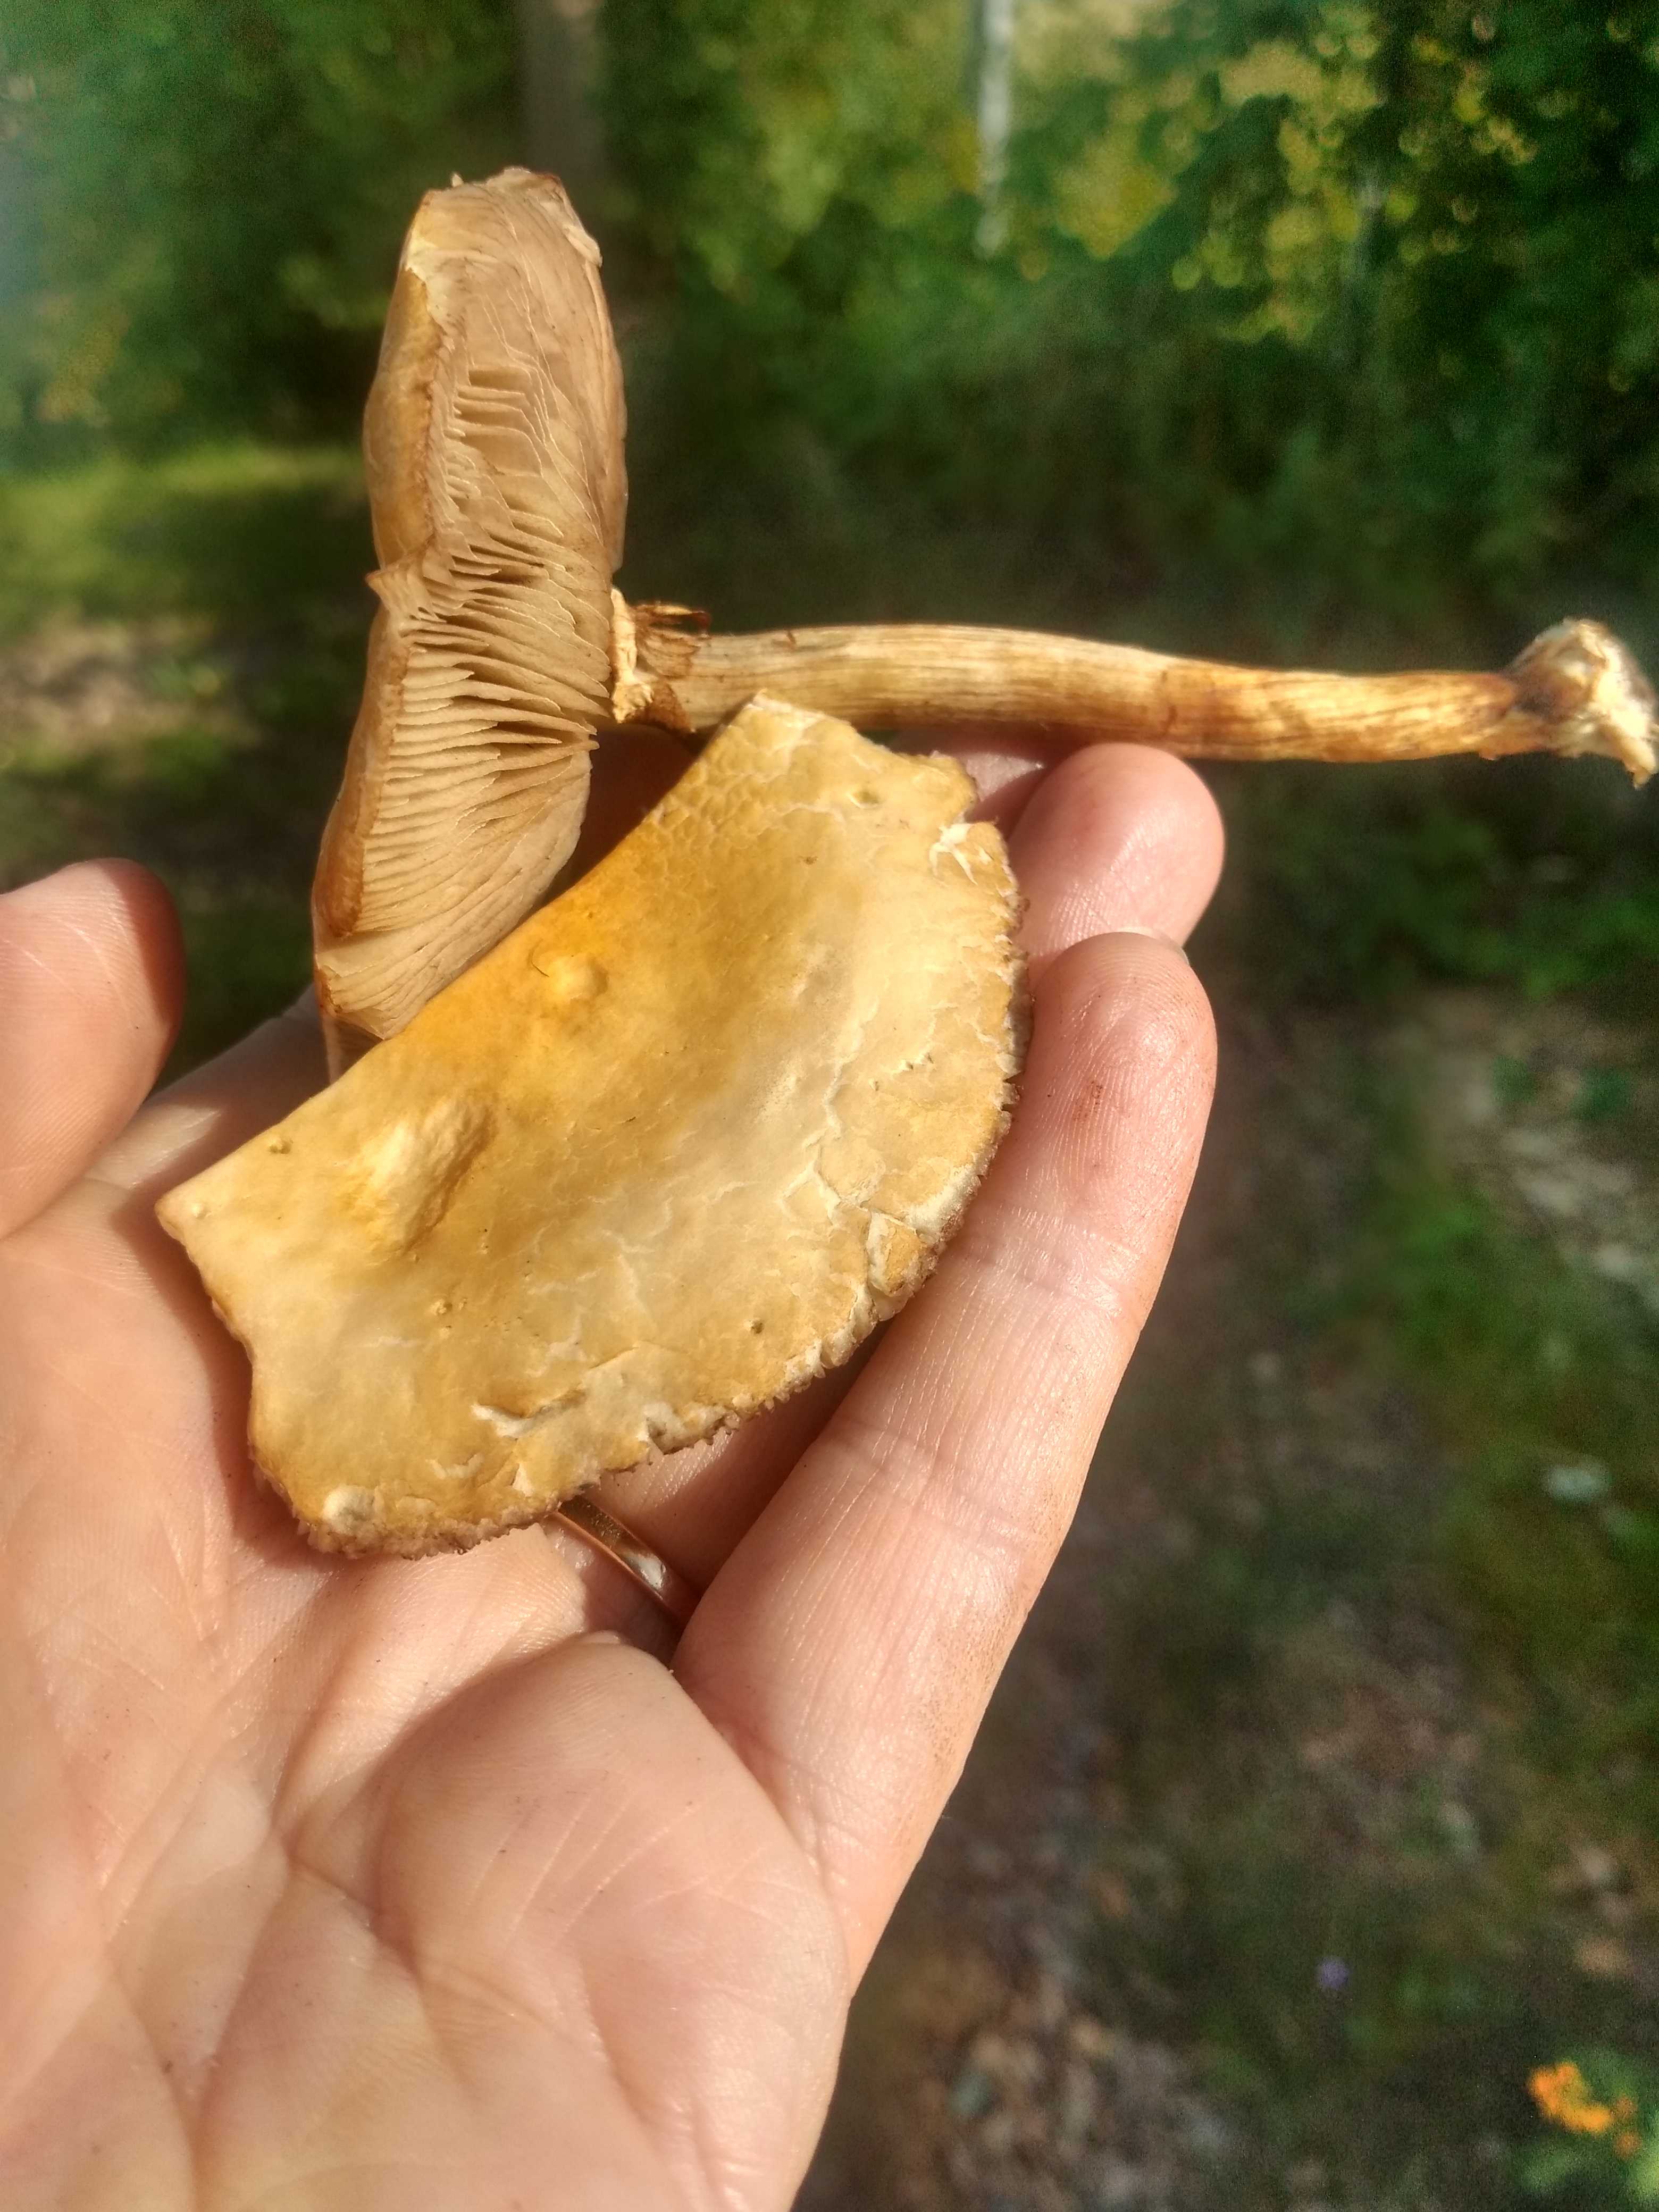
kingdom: Fungi
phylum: Basidiomycota
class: Agaricomycetes
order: Agaricales
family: Strophariaceae
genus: Agrocybe
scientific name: Agrocybe
